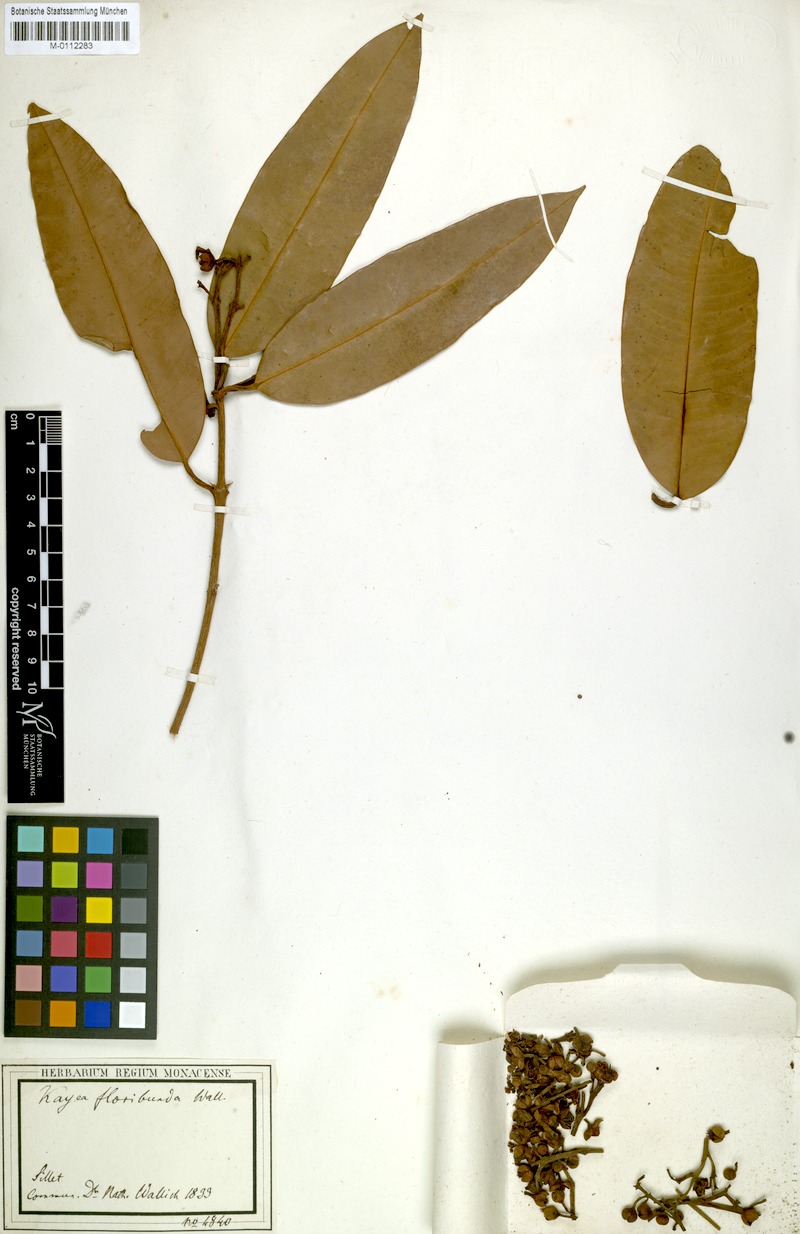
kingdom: Plantae
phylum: Tracheophyta
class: Magnoliopsida
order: Malpighiales
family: Calophyllaceae
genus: Kayea
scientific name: Kayea floribunda
